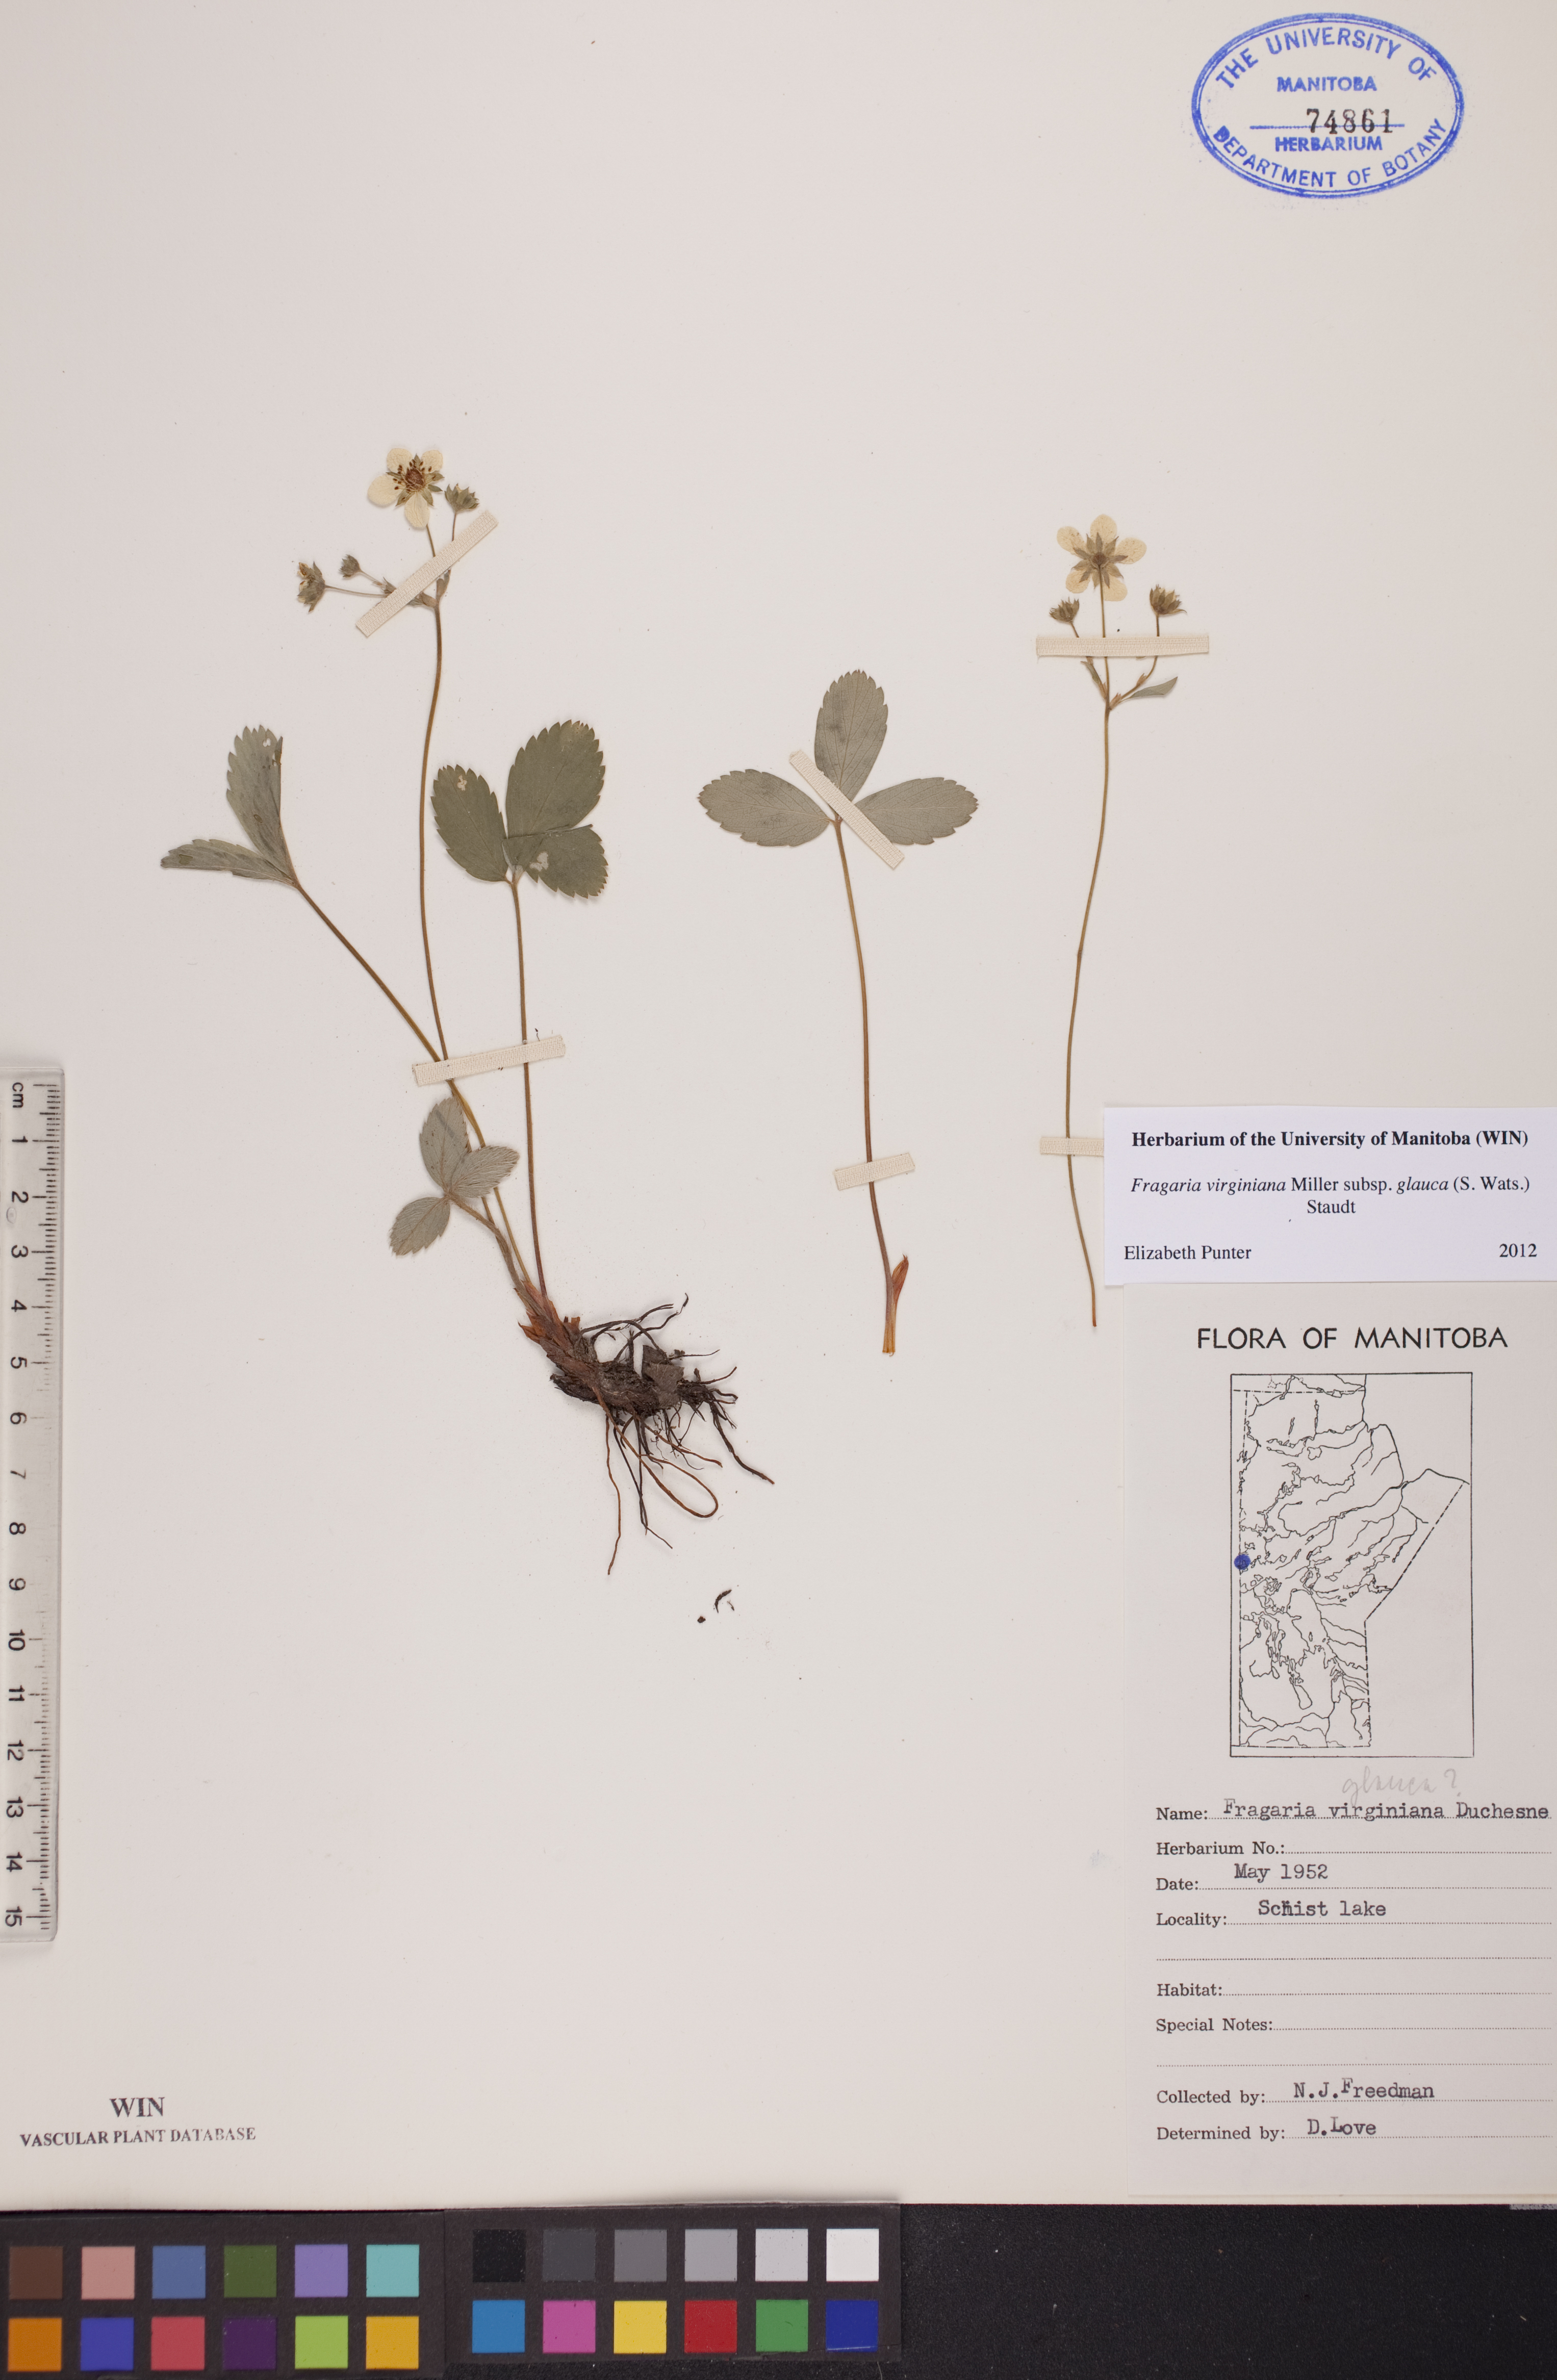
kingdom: Plantae
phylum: Tracheophyta
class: Magnoliopsida
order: Rosales
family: Rosaceae
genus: Fragaria
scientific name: Fragaria virginiana
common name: Thickleaved wild strawberry
